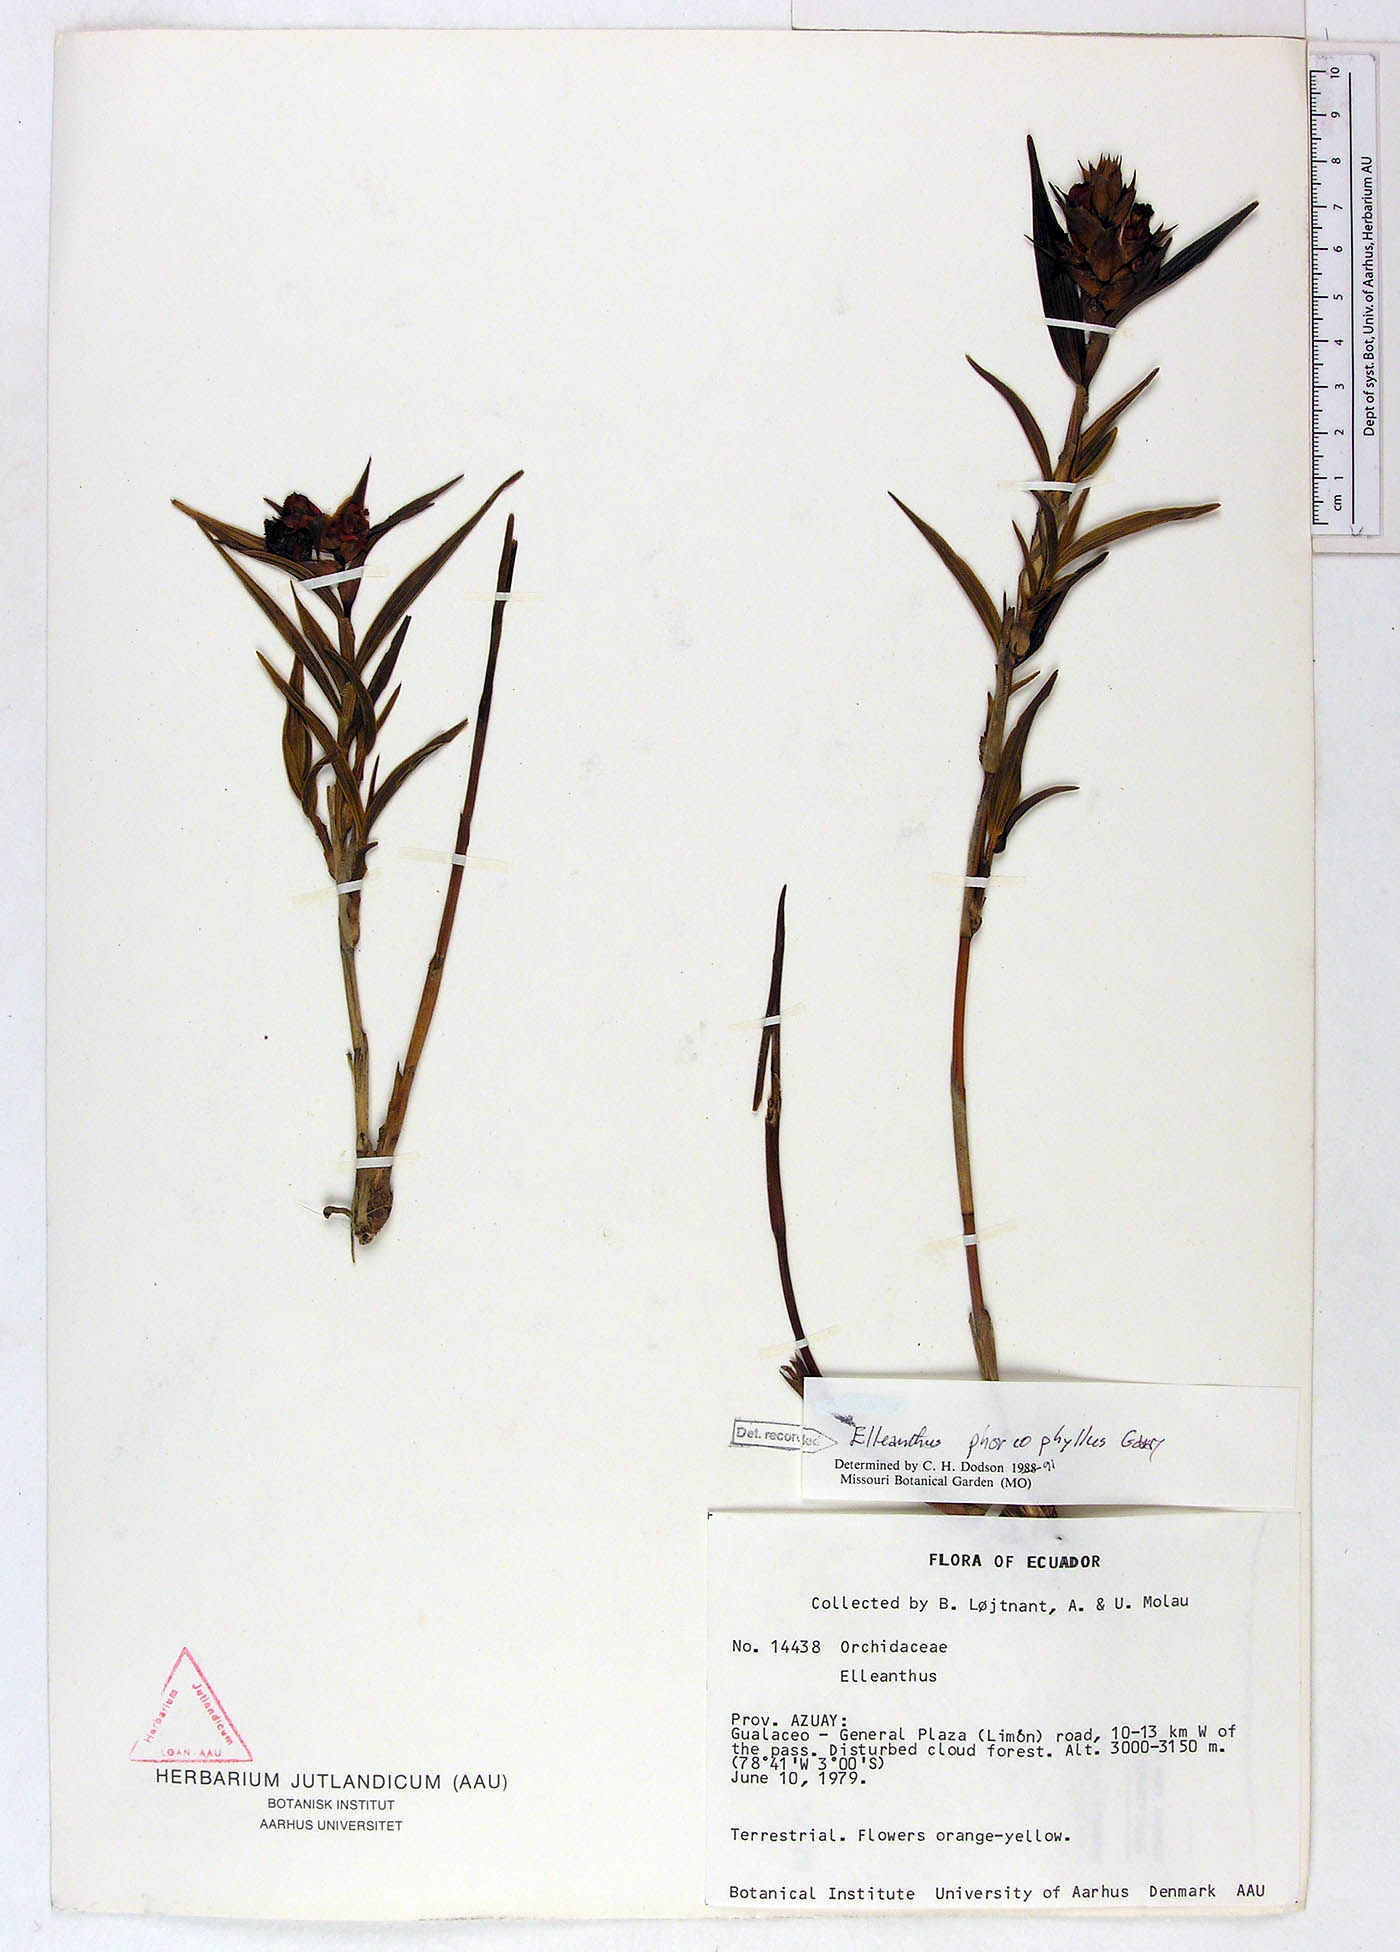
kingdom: Plantae
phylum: Tracheophyta
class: Liliopsida
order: Asparagales
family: Orchidaceae
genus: Elleanthus
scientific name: Elleanthus phorcophyllus
